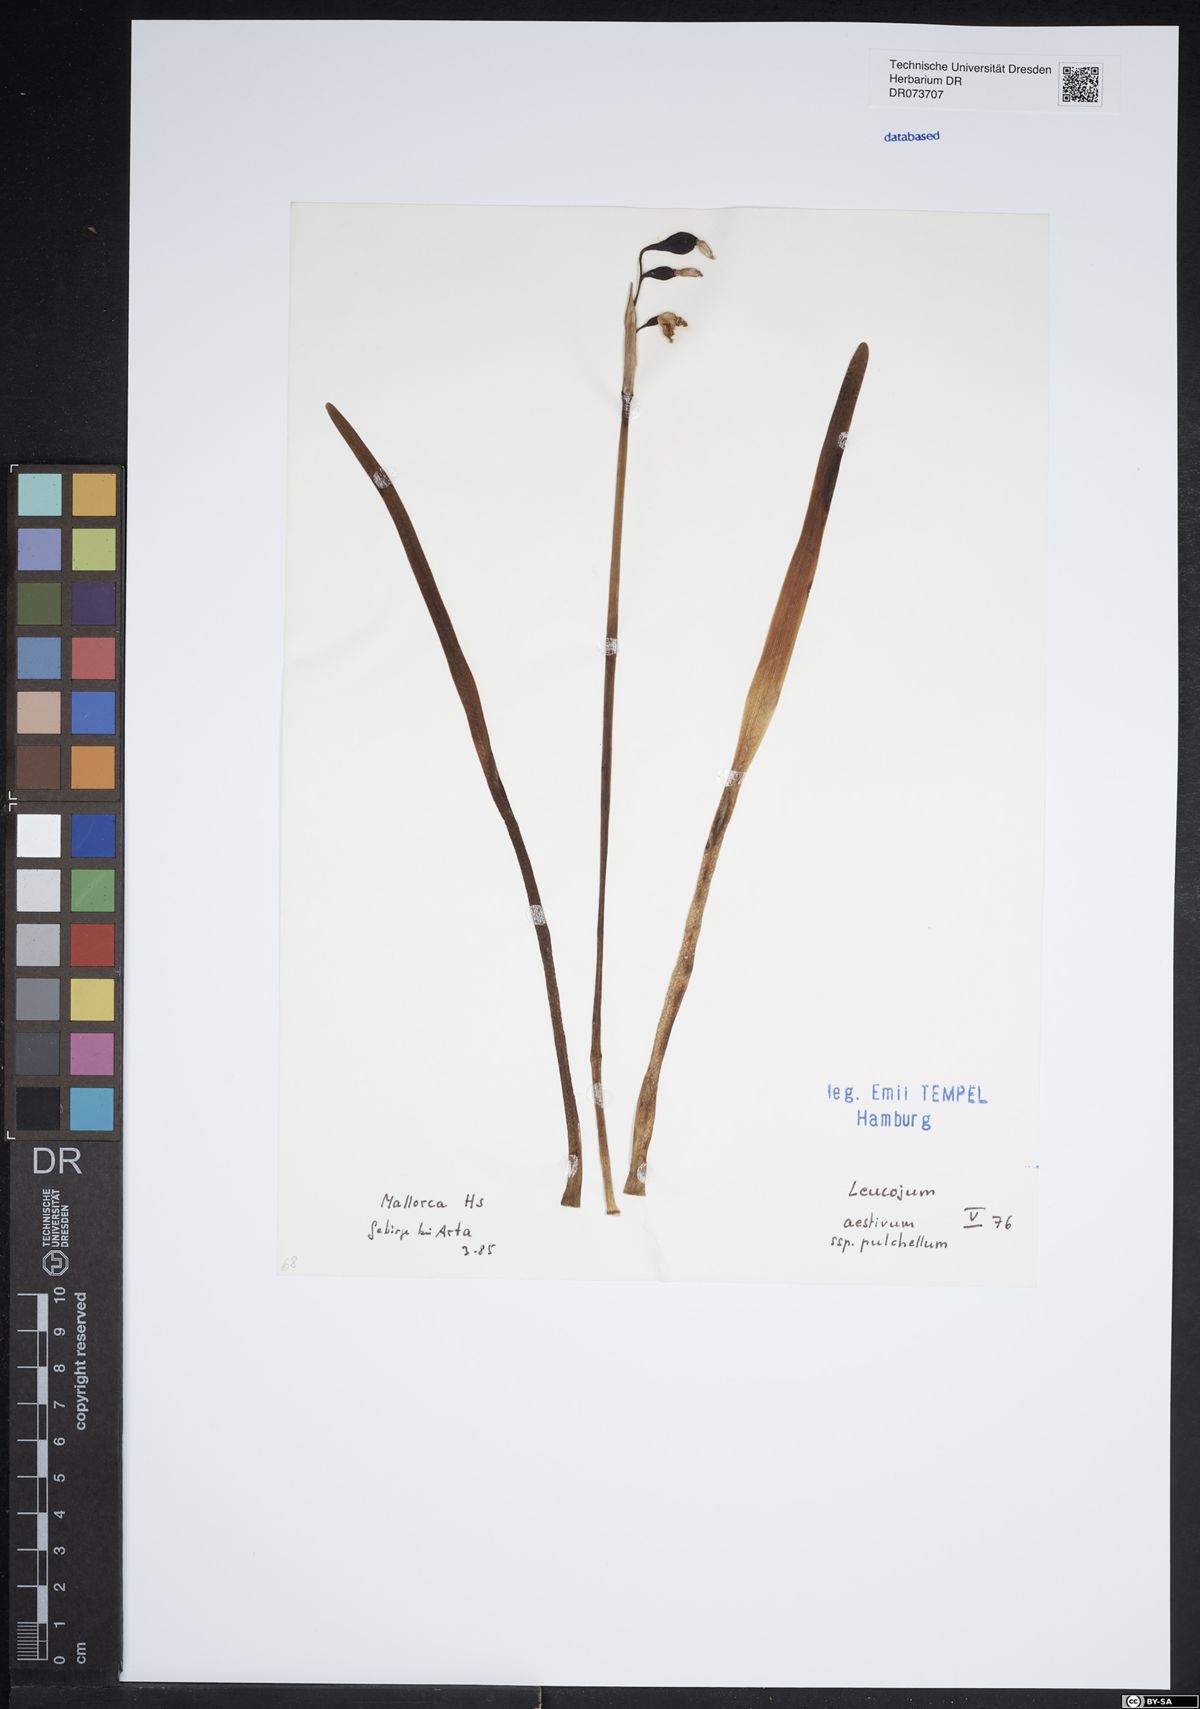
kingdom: Plantae
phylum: Tracheophyta
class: Liliopsida
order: Asparagales
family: Amaryllidaceae
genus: Leucojum
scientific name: Leucojum aestivum
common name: Summer snowflake
